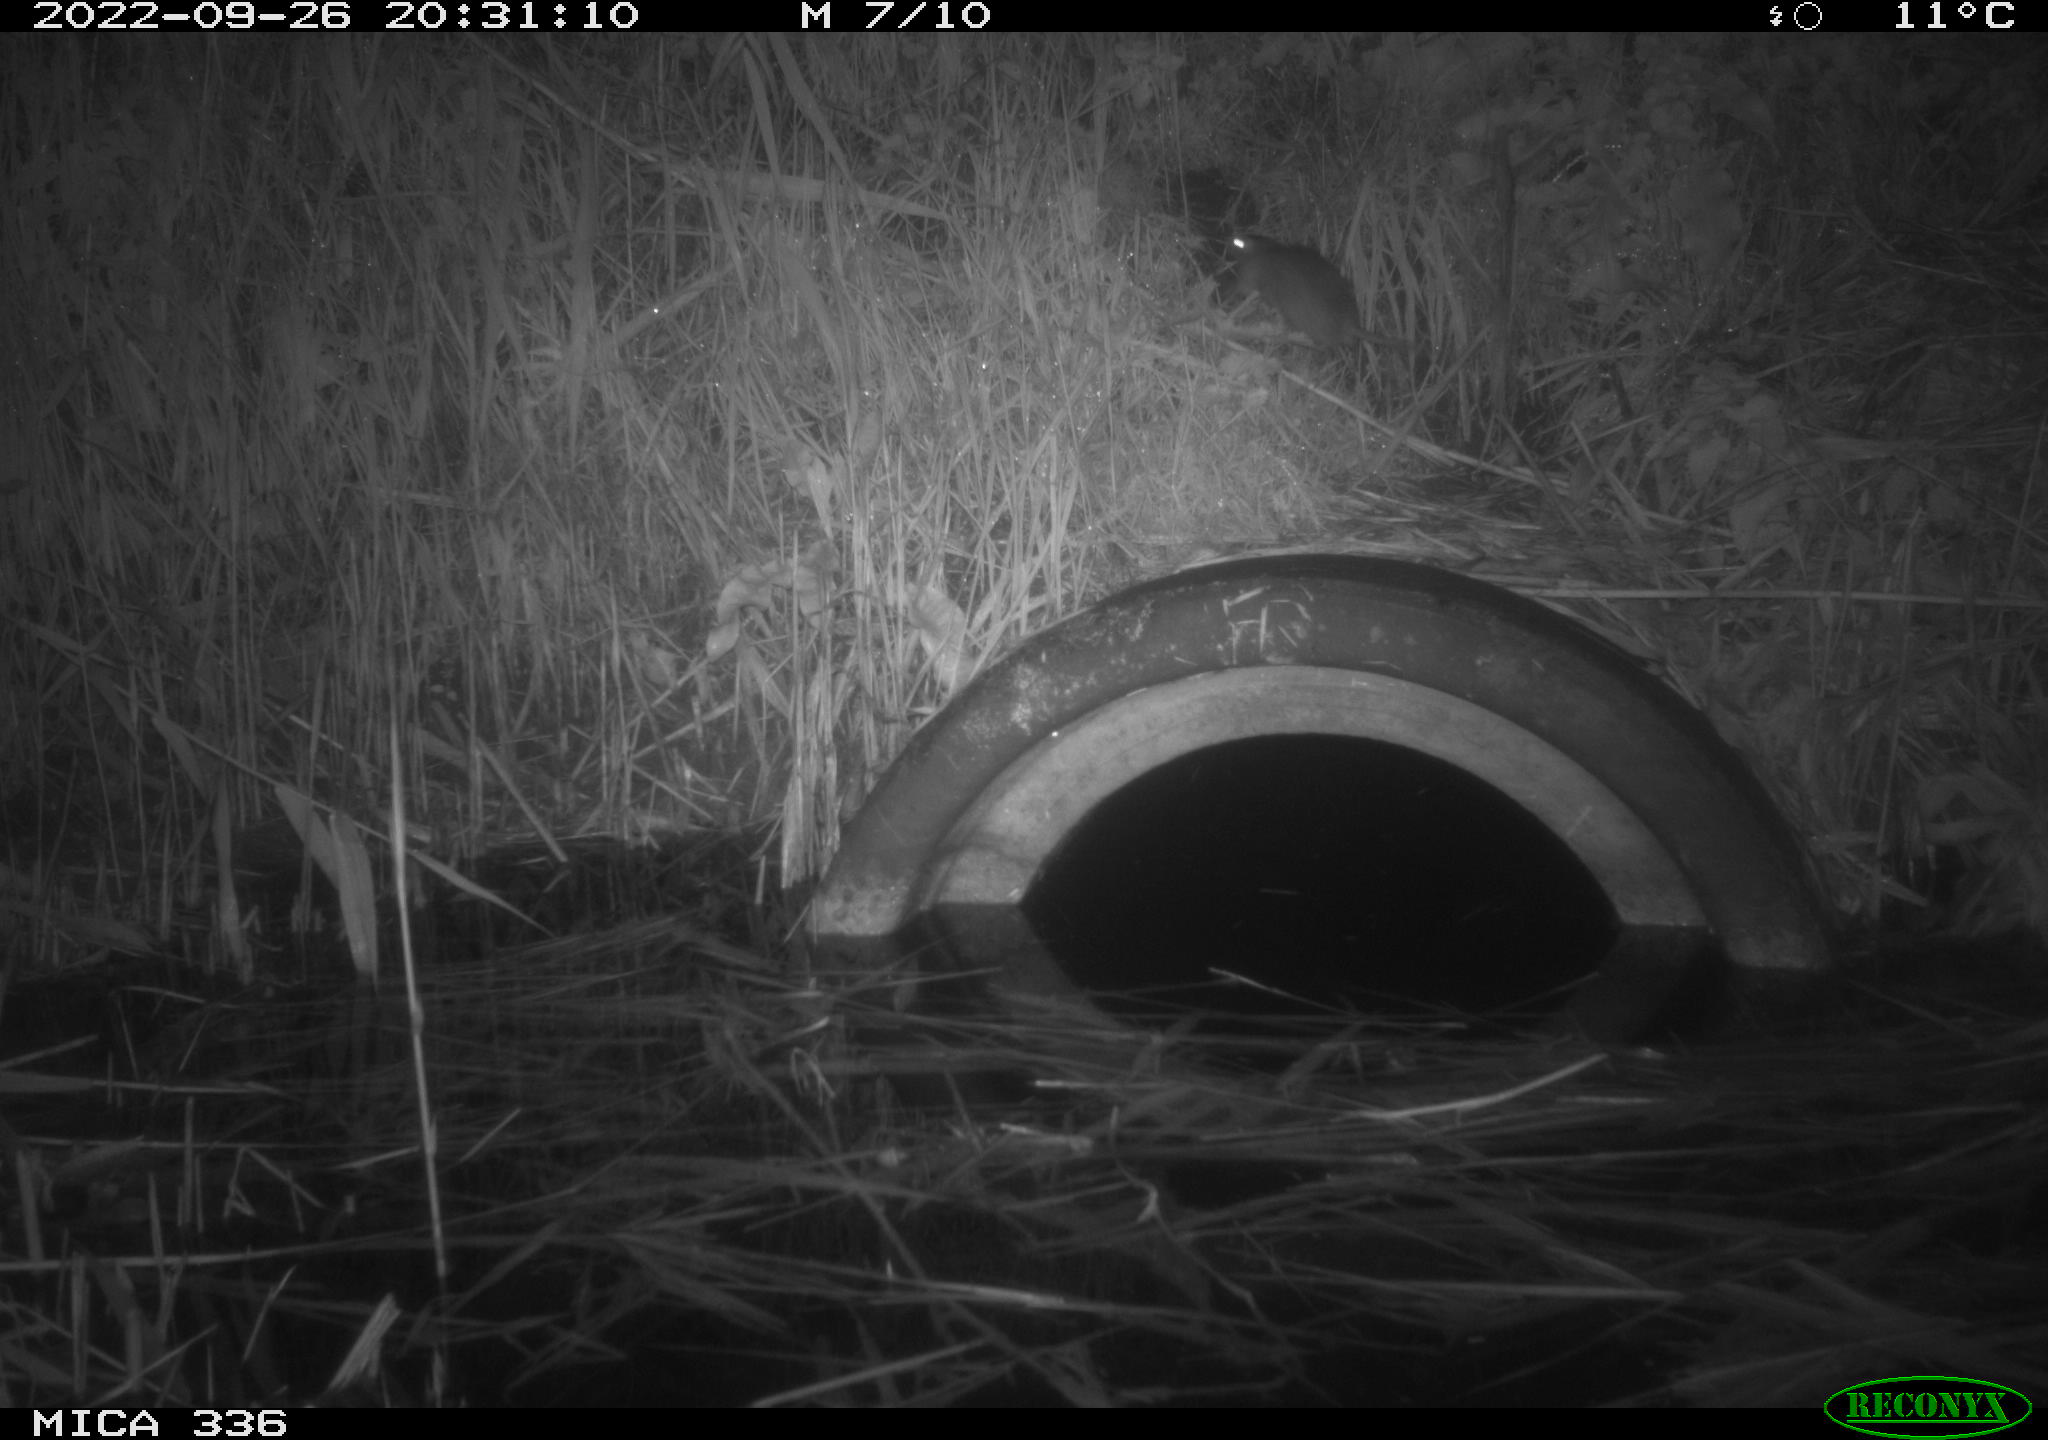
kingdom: Animalia
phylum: Chordata
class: Mammalia
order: Rodentia
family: Muridae
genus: Rattus
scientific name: Rattus norvegicus
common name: Brown rat
